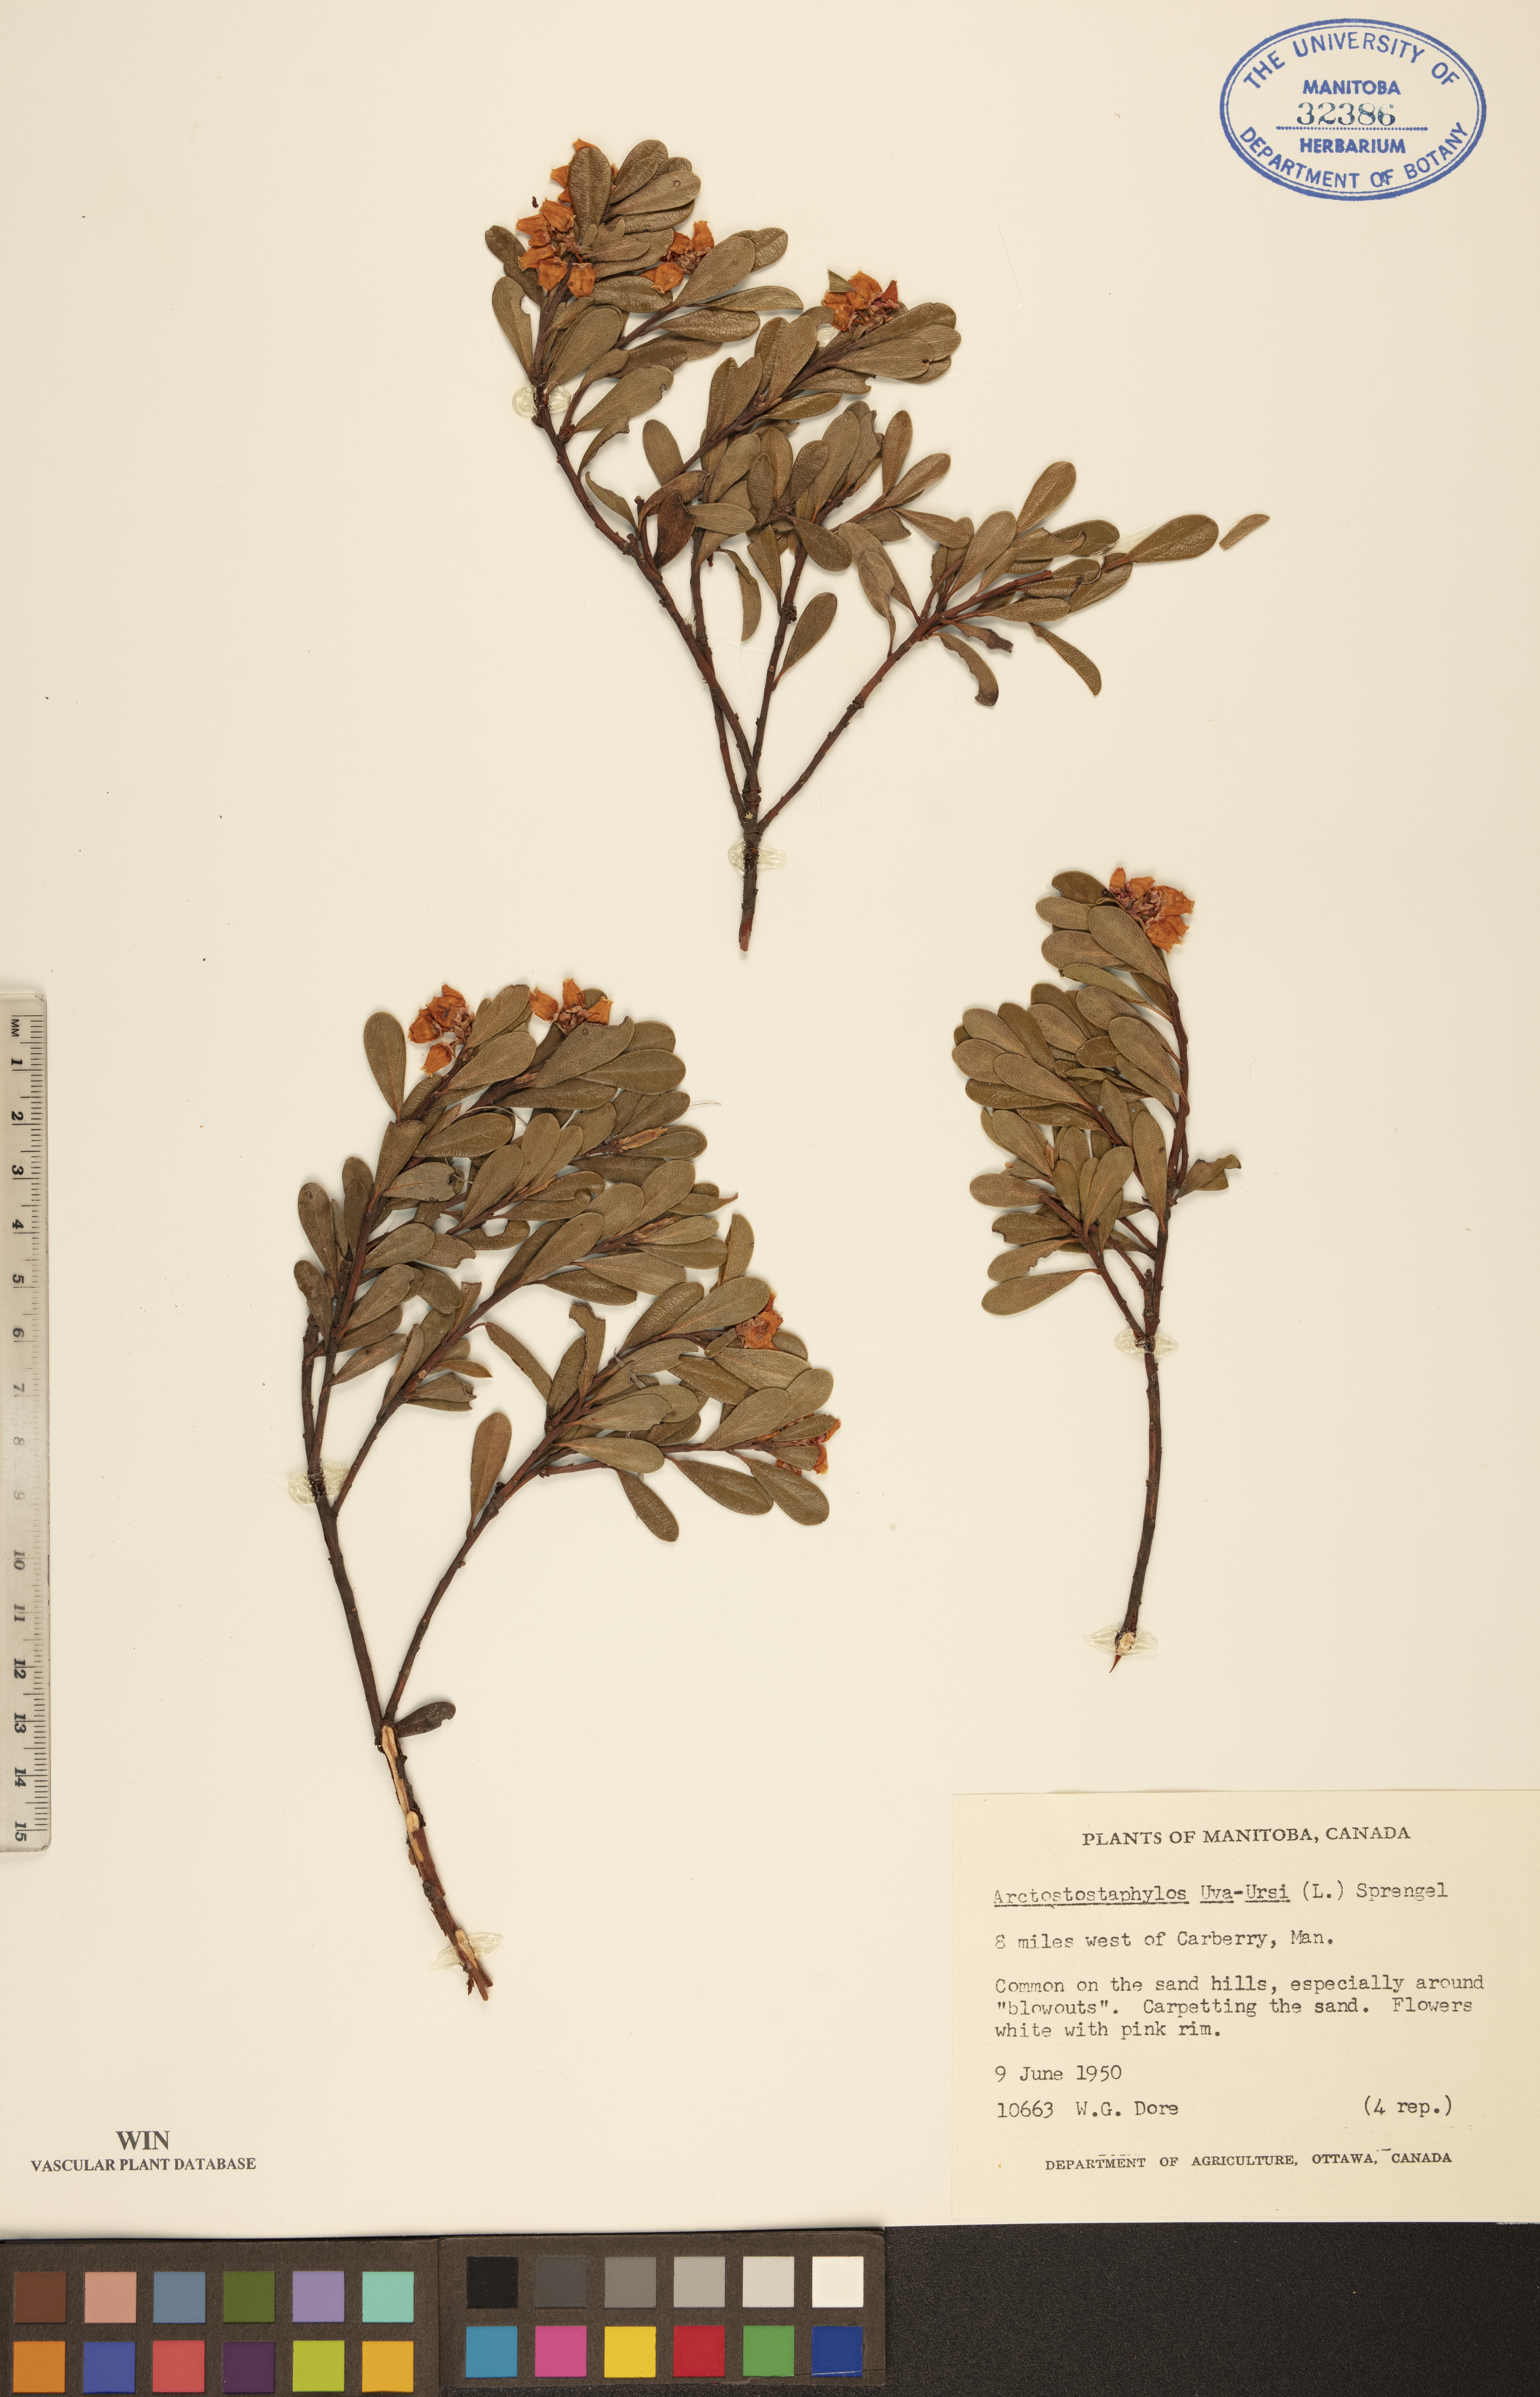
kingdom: Plantae
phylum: Tracheophyta
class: Magnoliopsida
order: Ericales
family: Ericaceae
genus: Arctostaphylos
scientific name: Arctostaphylos uva-ursi
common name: Bearberry
